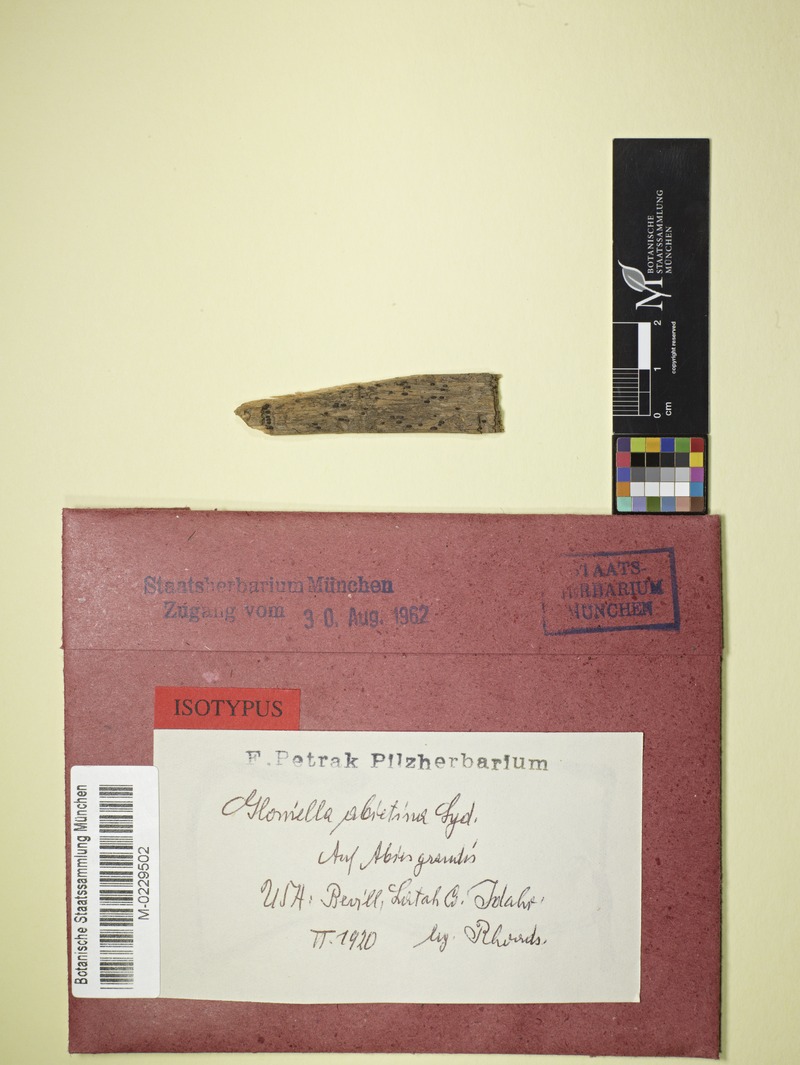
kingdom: Fungi
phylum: Ascomycota
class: Dothideomycetes
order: Hysteriales
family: Hysteriaceae
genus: Gloniella
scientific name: Gloniella abietina
